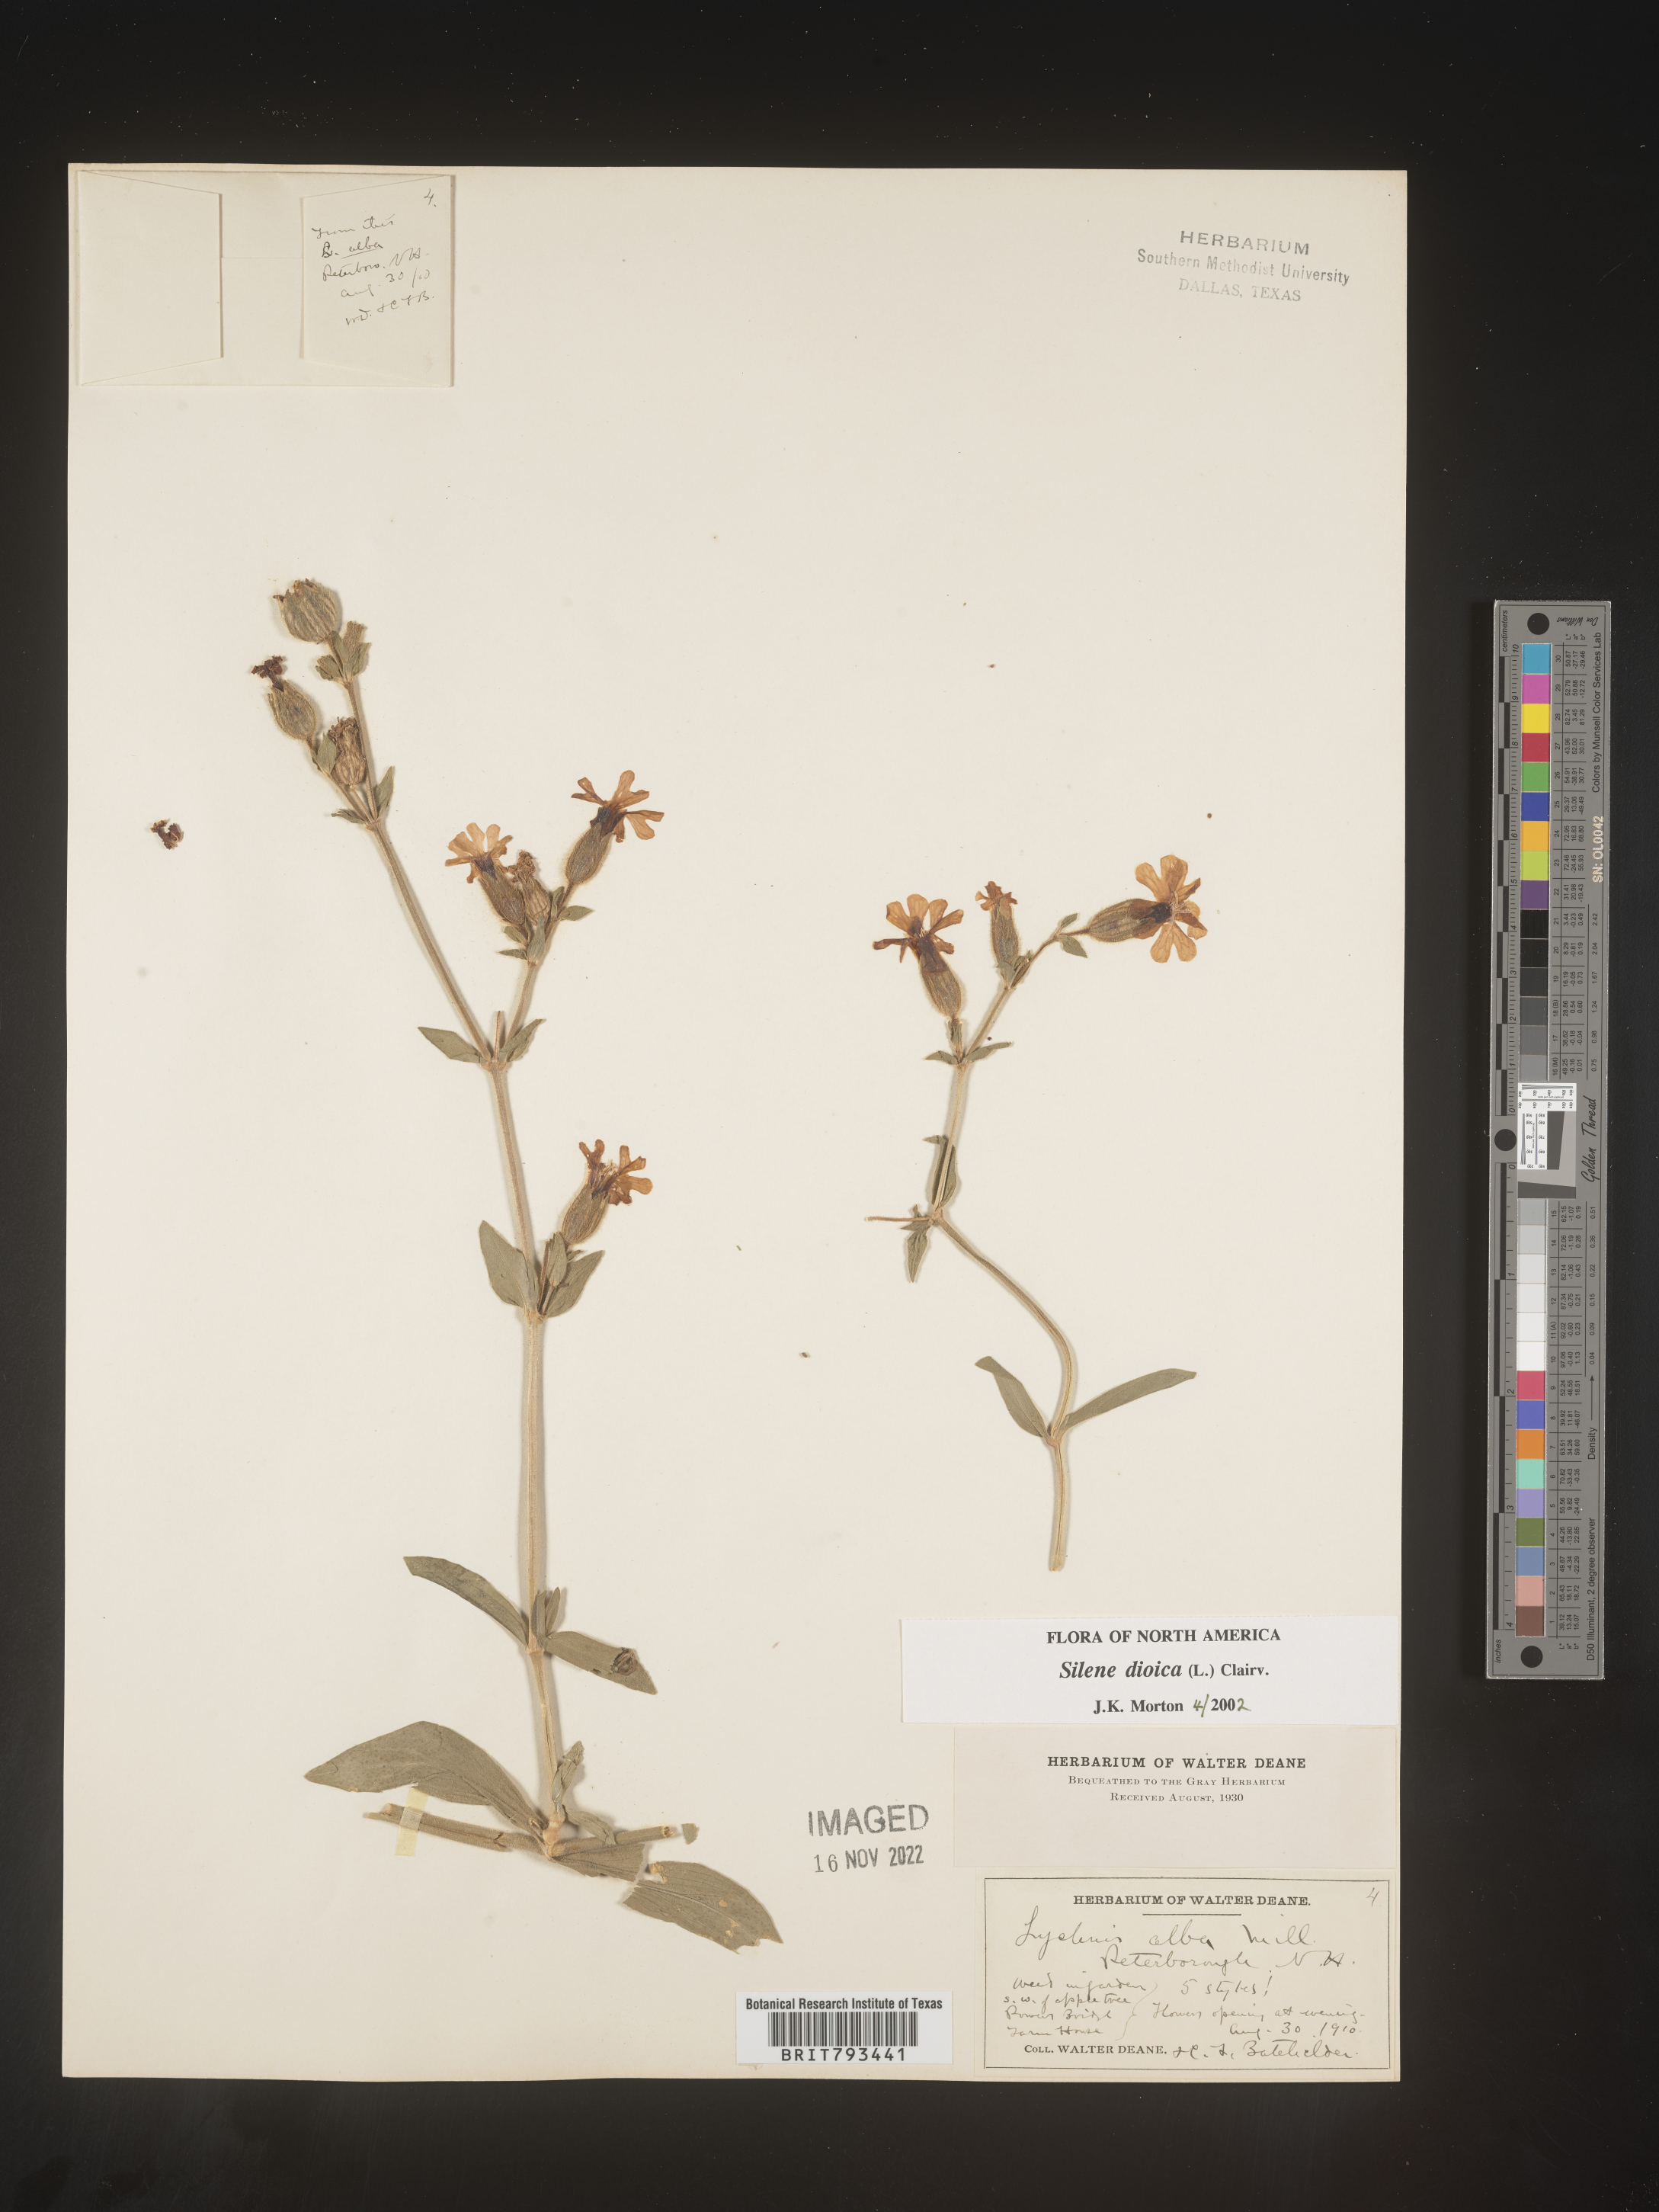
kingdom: Plantae
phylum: Tracheophyta
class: Magnoliopsida
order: Caryophyllales
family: Caryophyllaceae
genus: Silene
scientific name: Silene dioica
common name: Red campion
